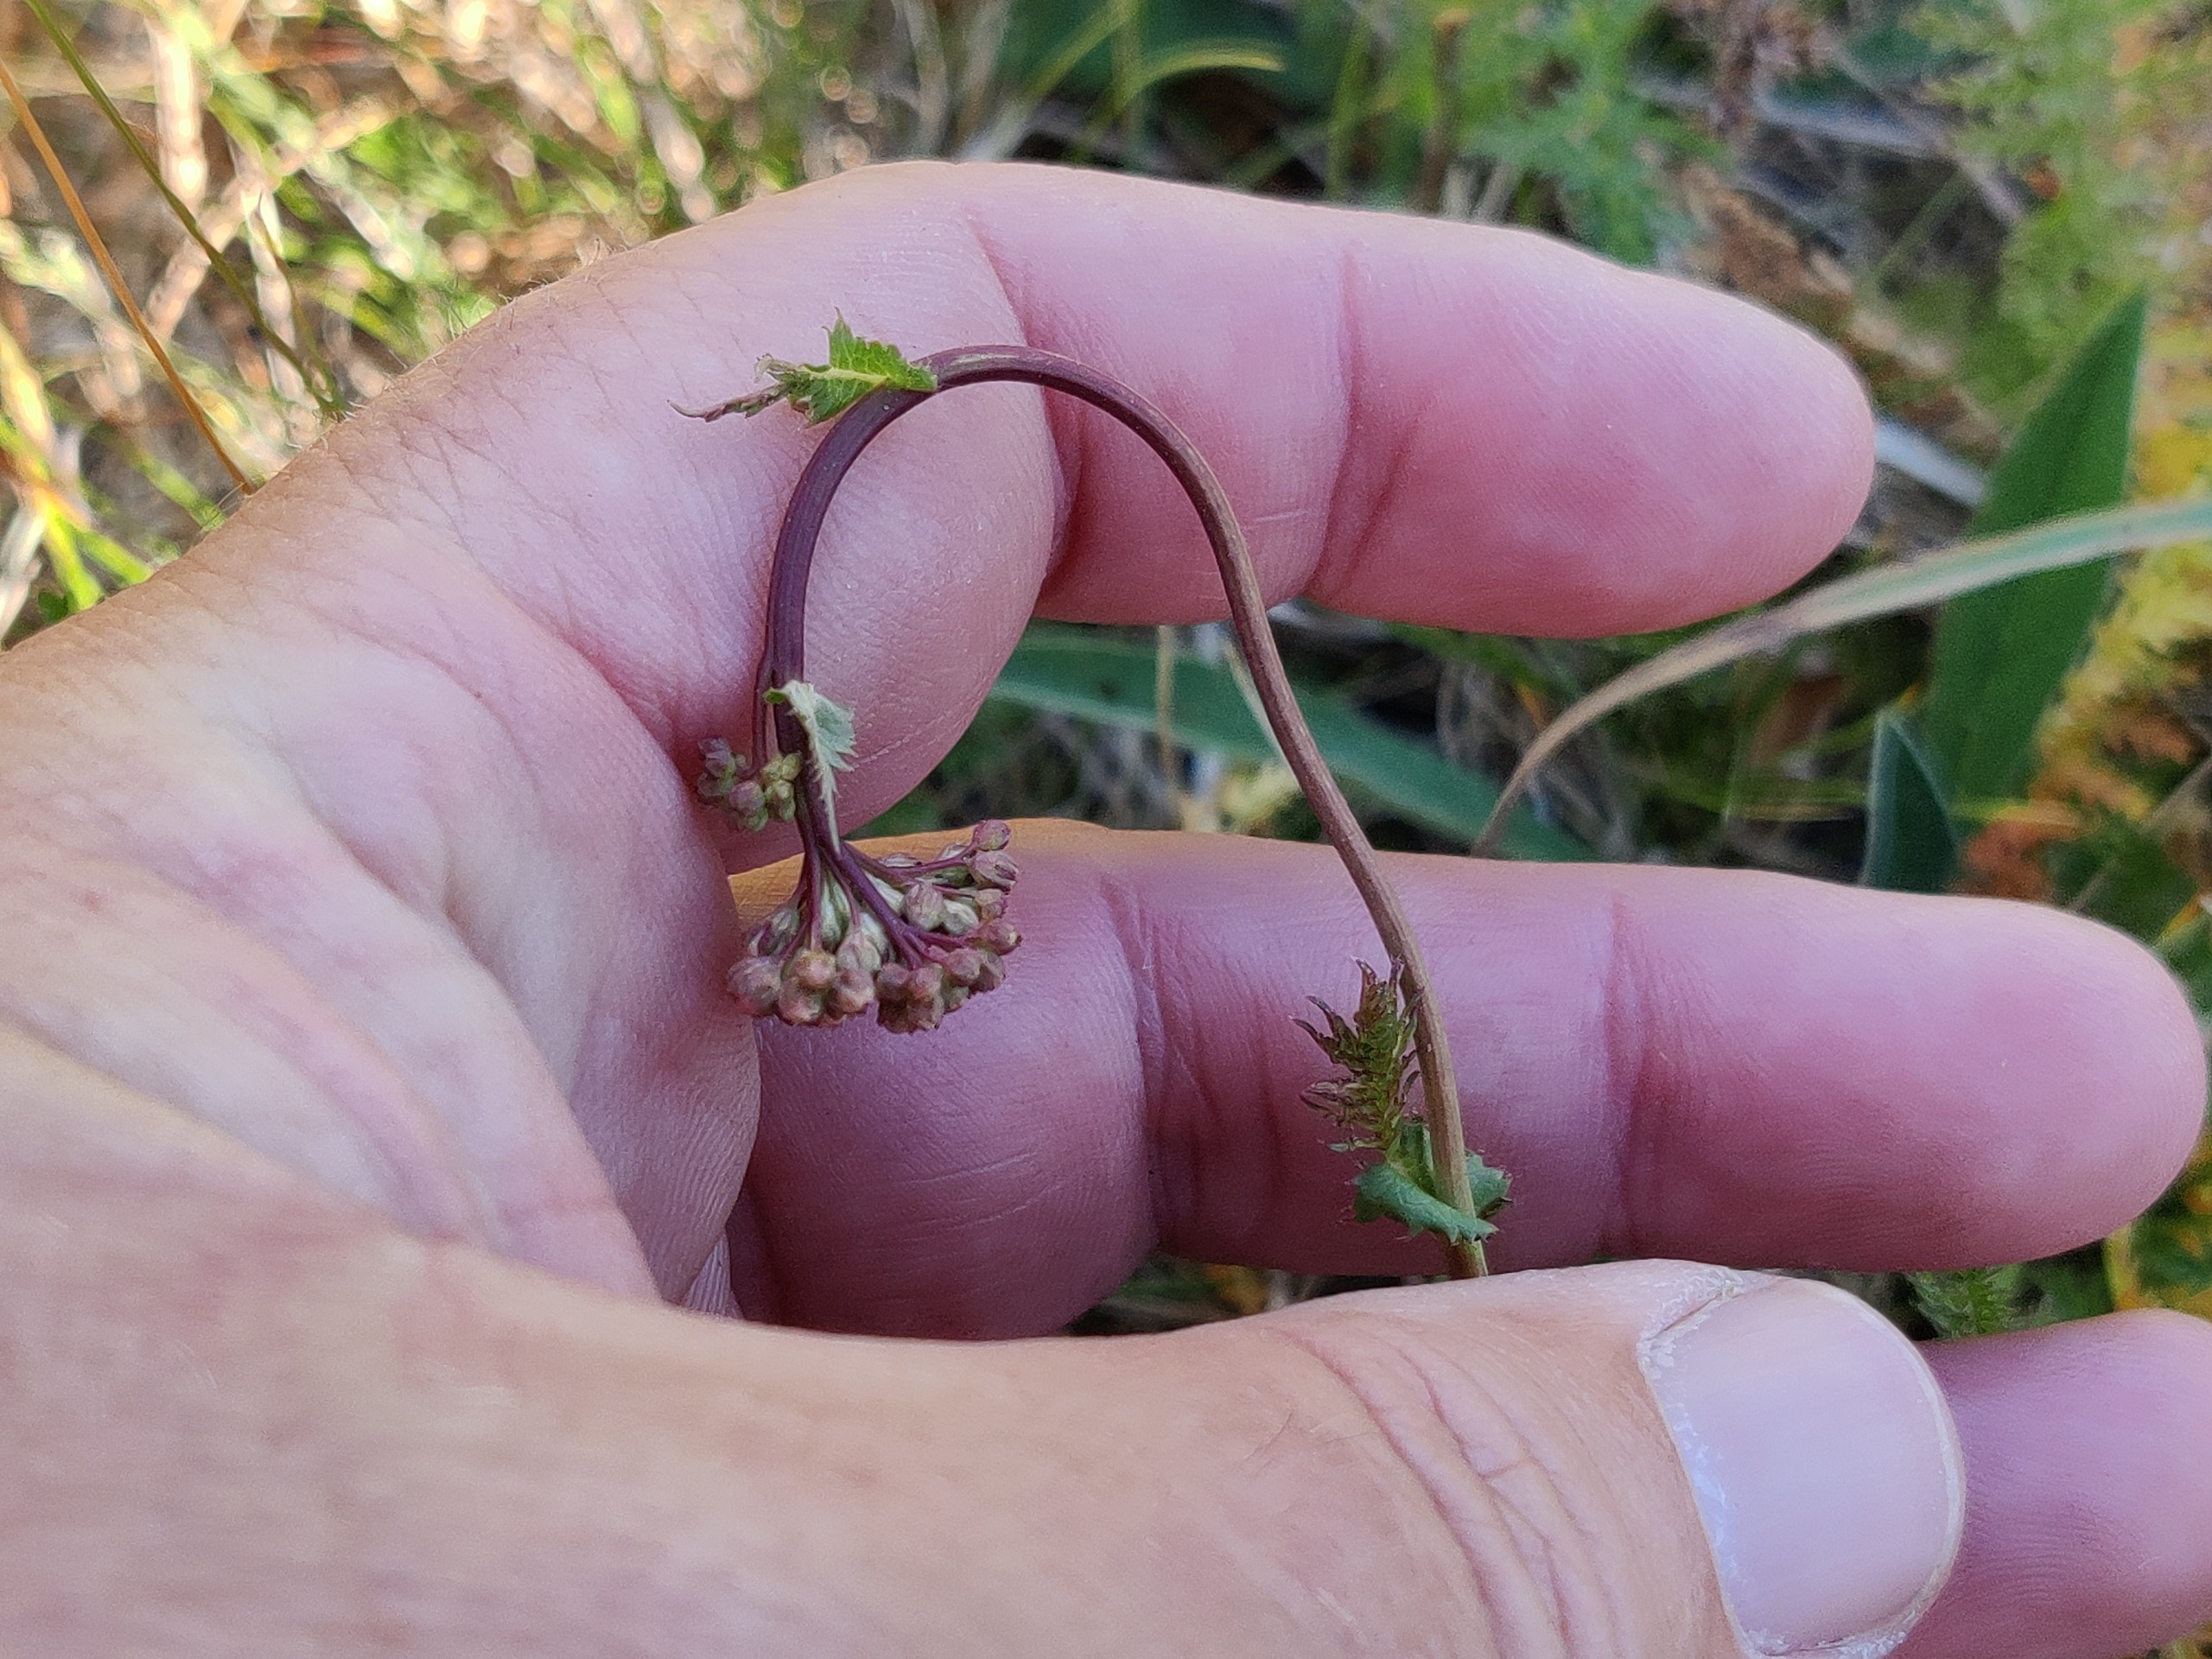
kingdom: Plantae
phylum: Tracheophyta
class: Magnoliopsida
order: Rosales
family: Rosaceae
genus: Filipendula
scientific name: Filipendula vulgaris
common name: Knoldet mjødurt
